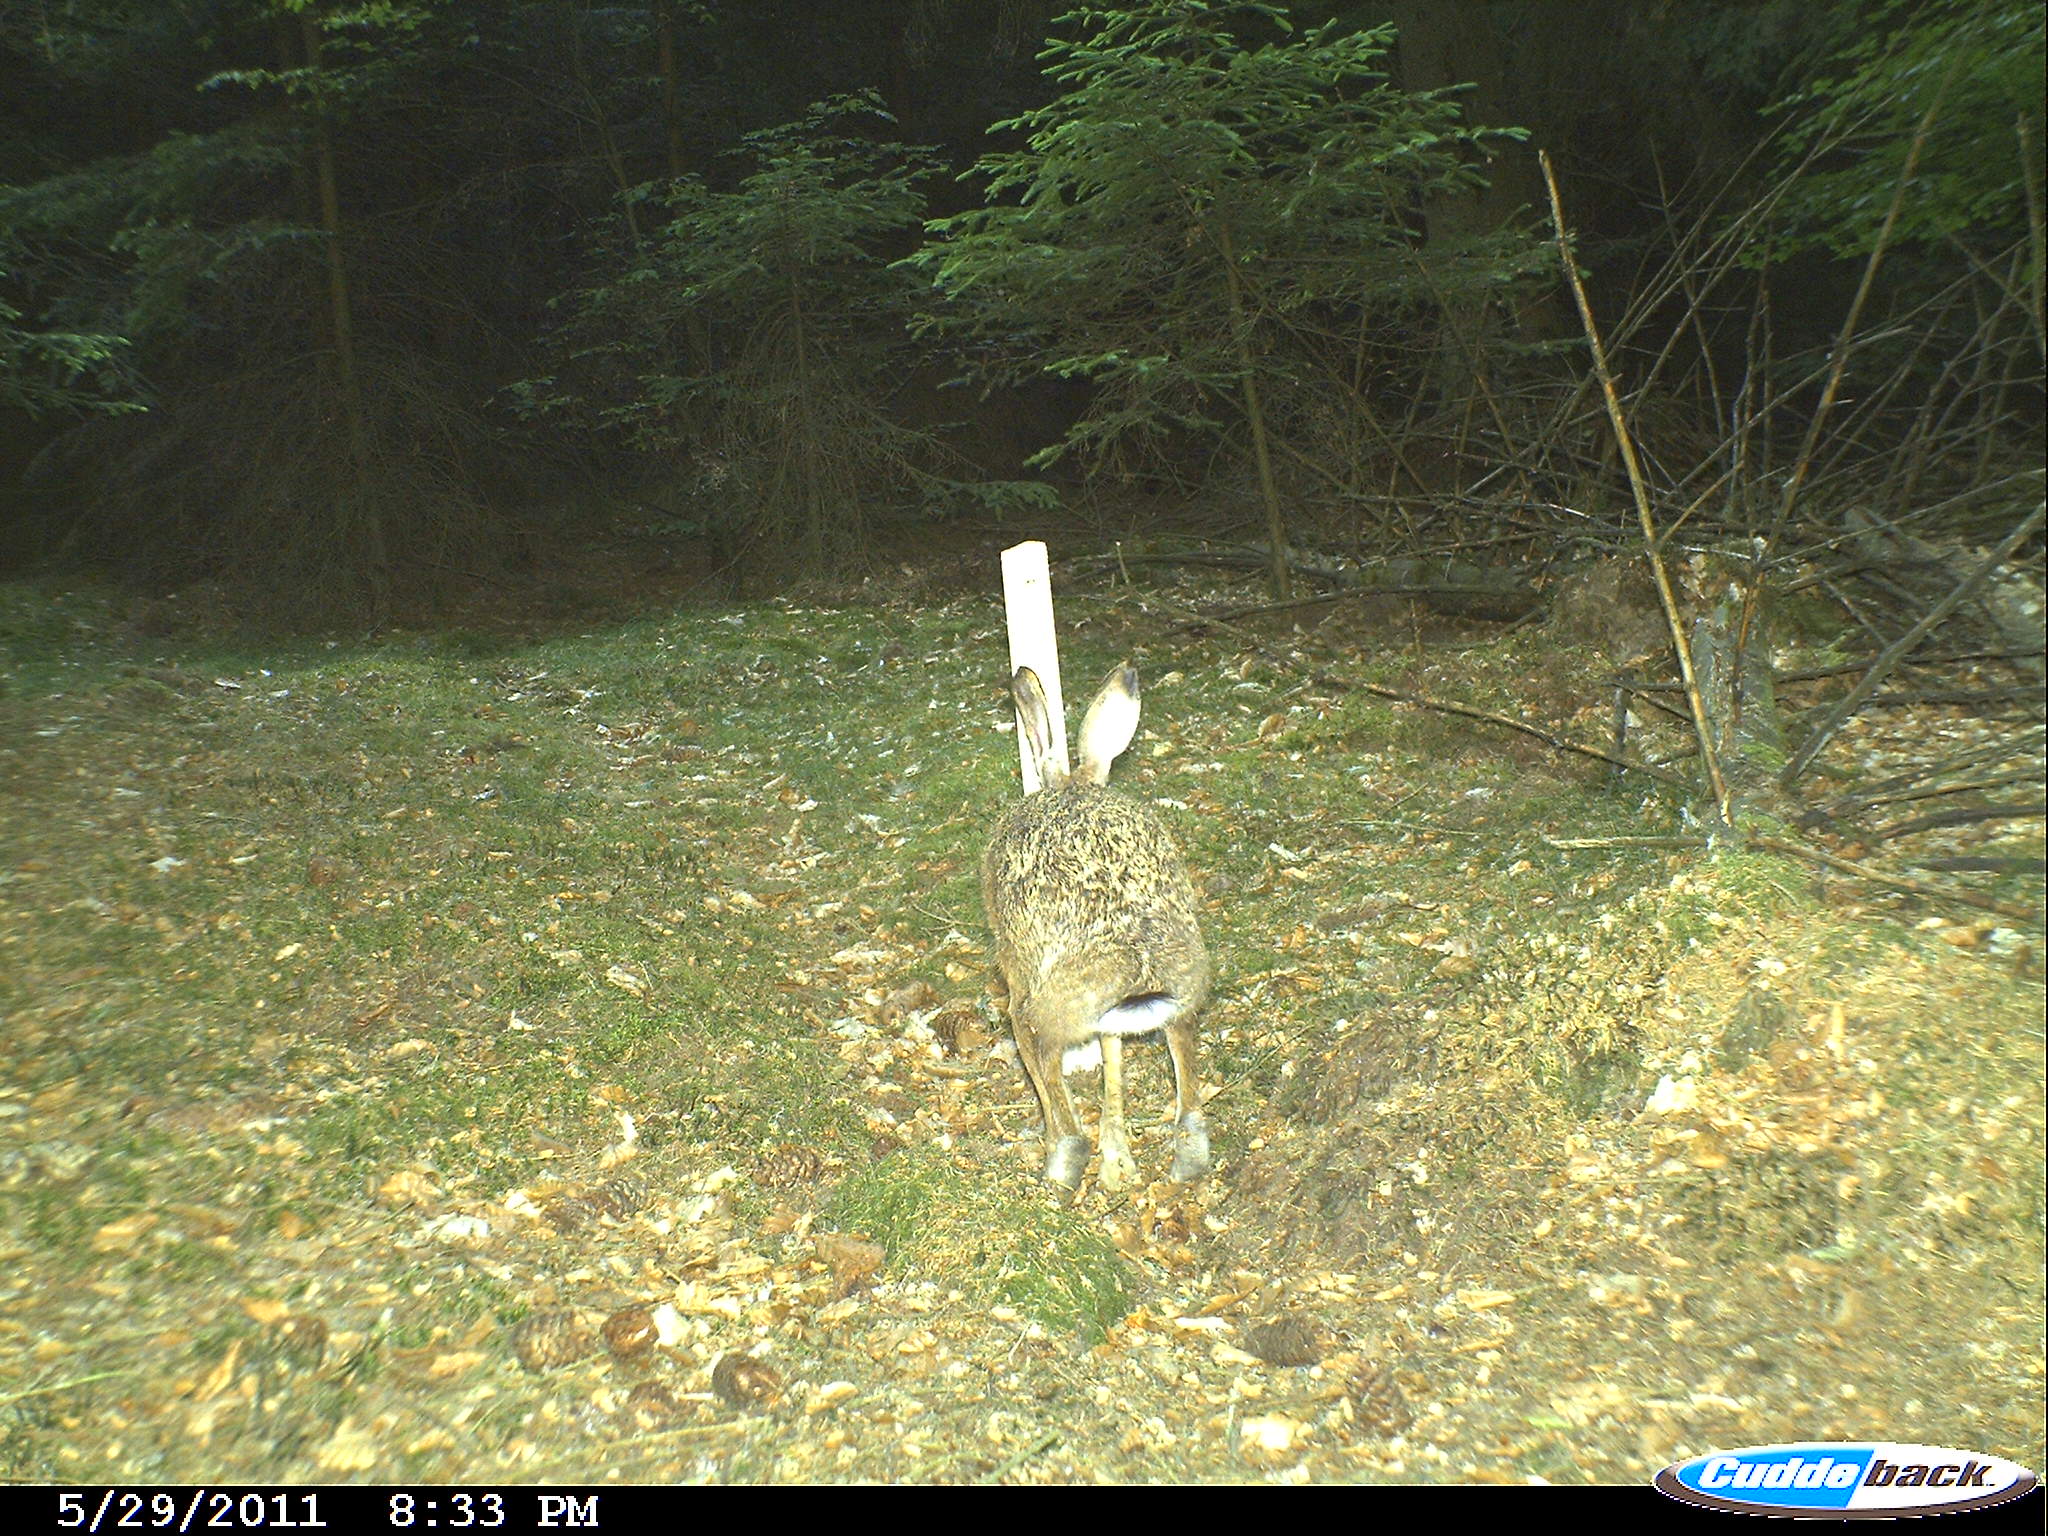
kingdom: Animalia
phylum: Chordata
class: Mammalia
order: Lagomorpha
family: Leporidae
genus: Lepus
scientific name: Lepus europaeus
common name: European hare
